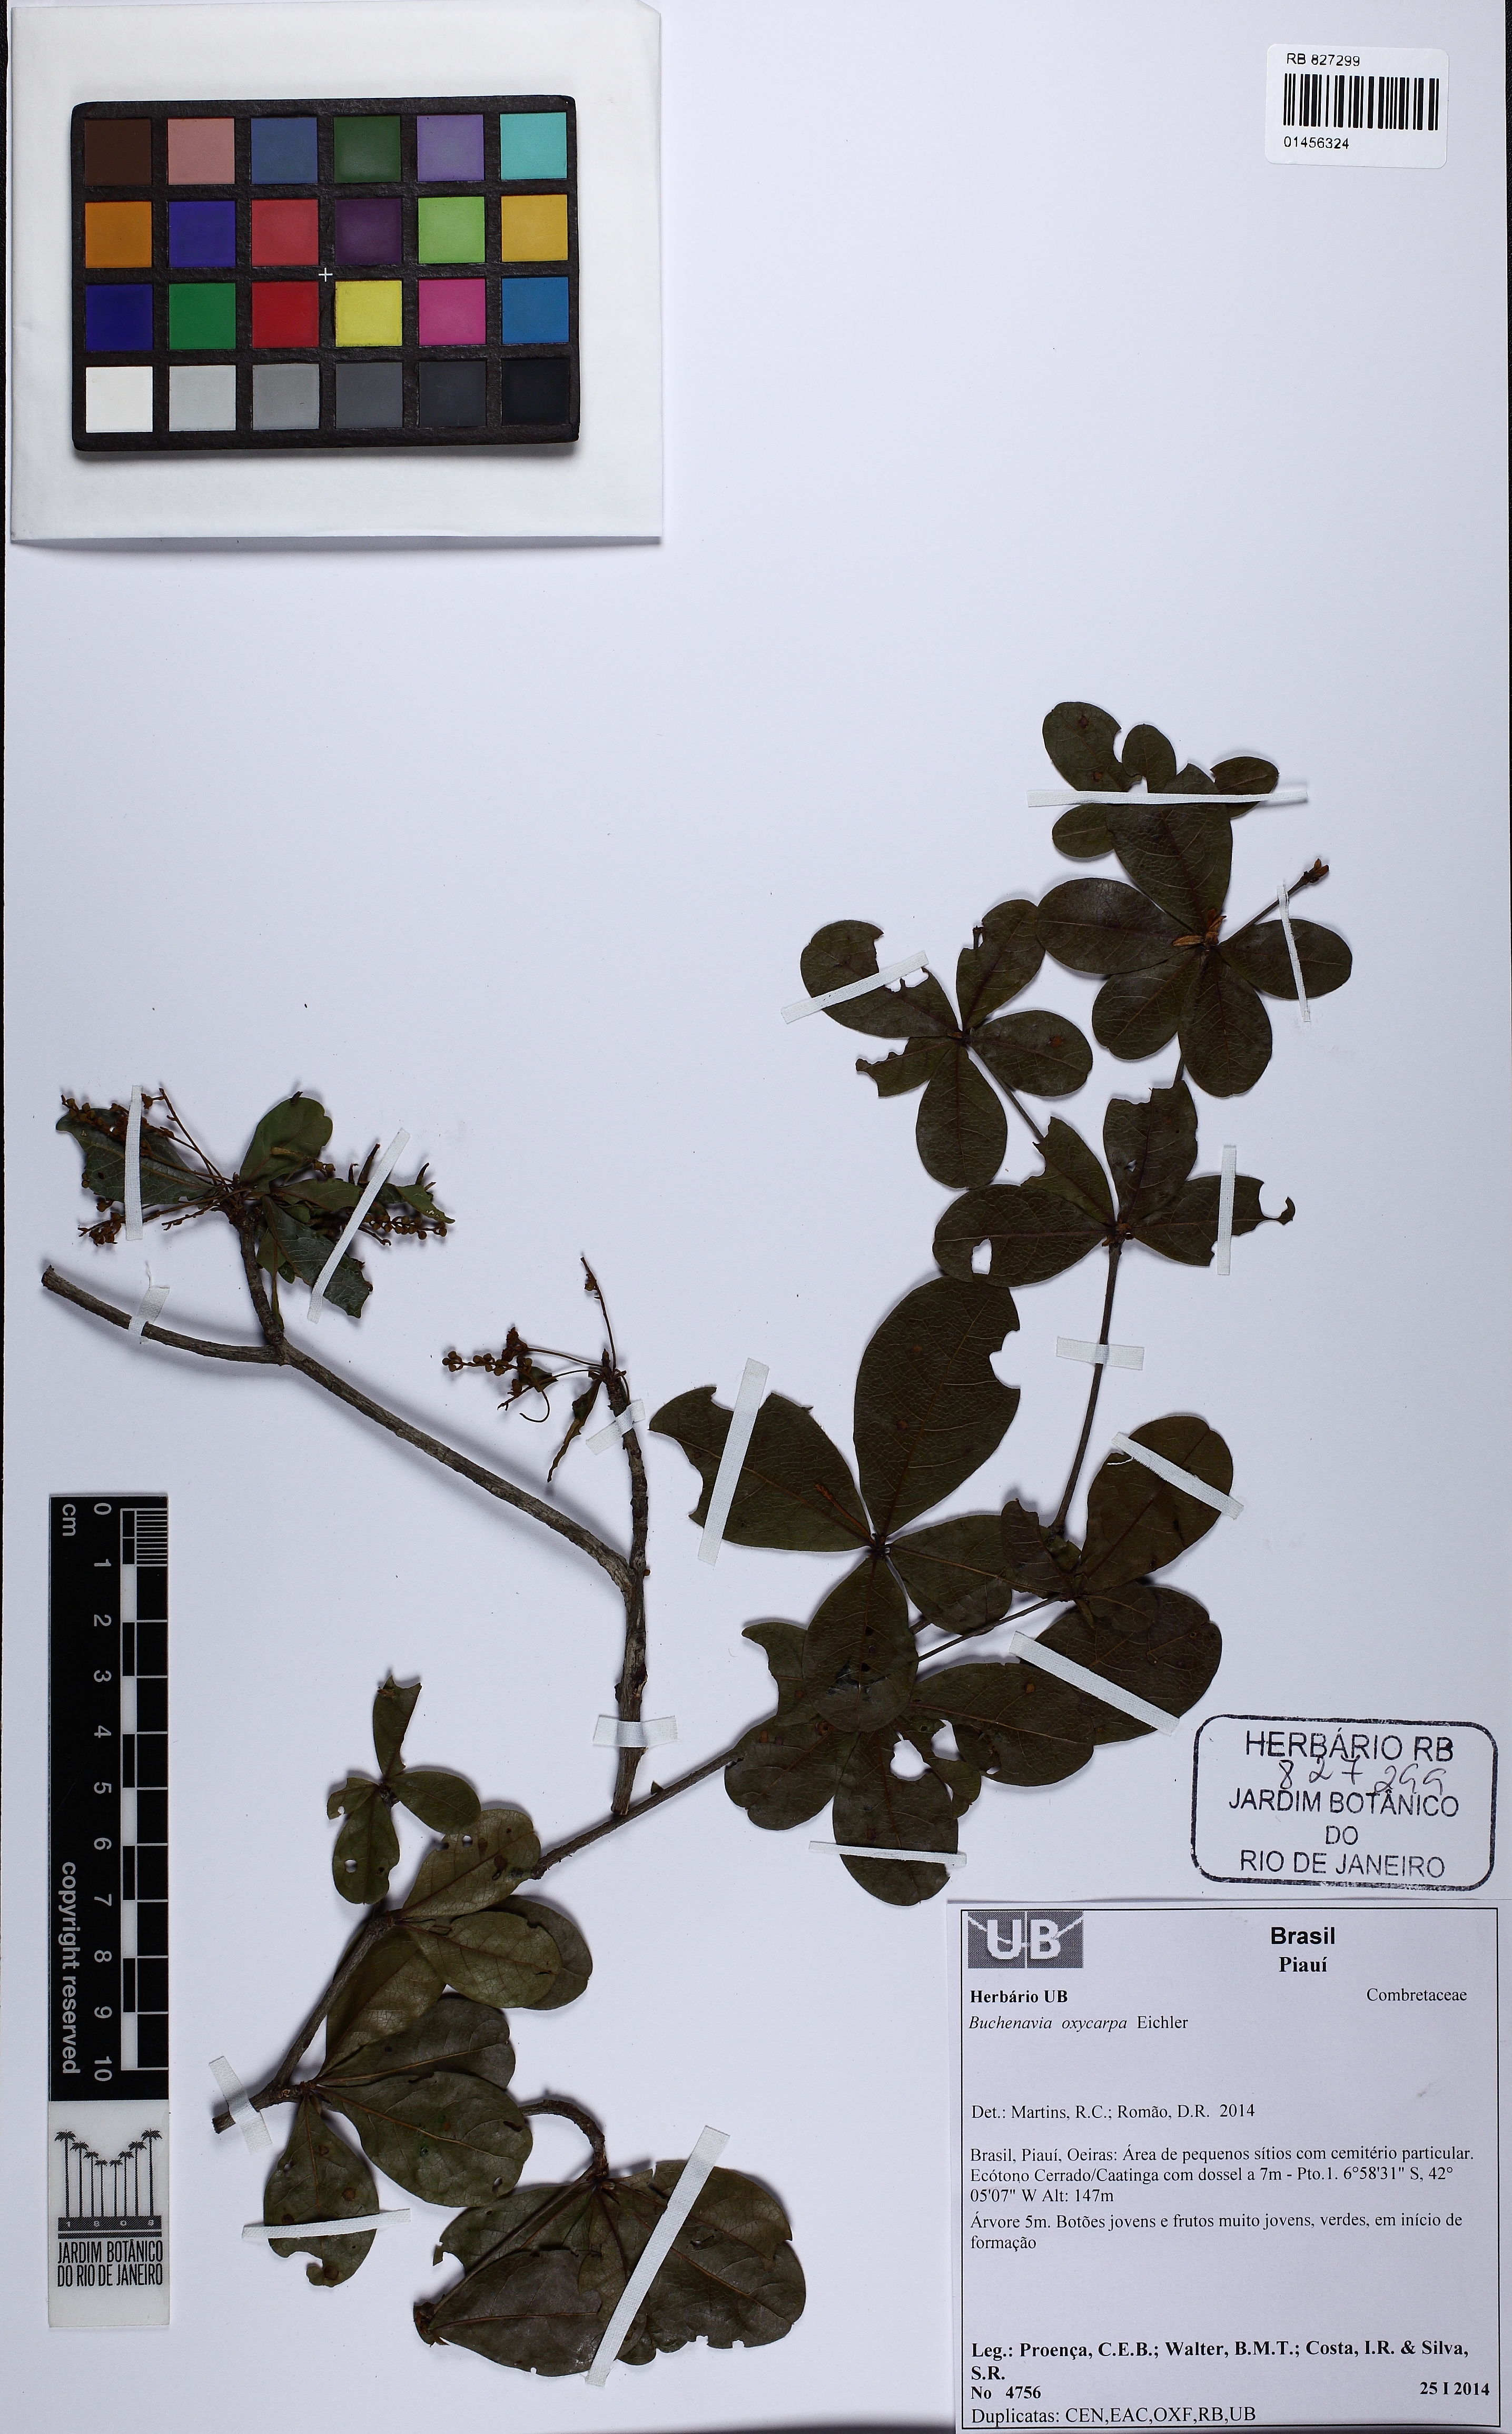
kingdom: Plantae
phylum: Tracheophyta
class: Magnoliopsida
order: Myrtales
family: Combretaceae
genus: Terminalia
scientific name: Terminalia oxycarpa
